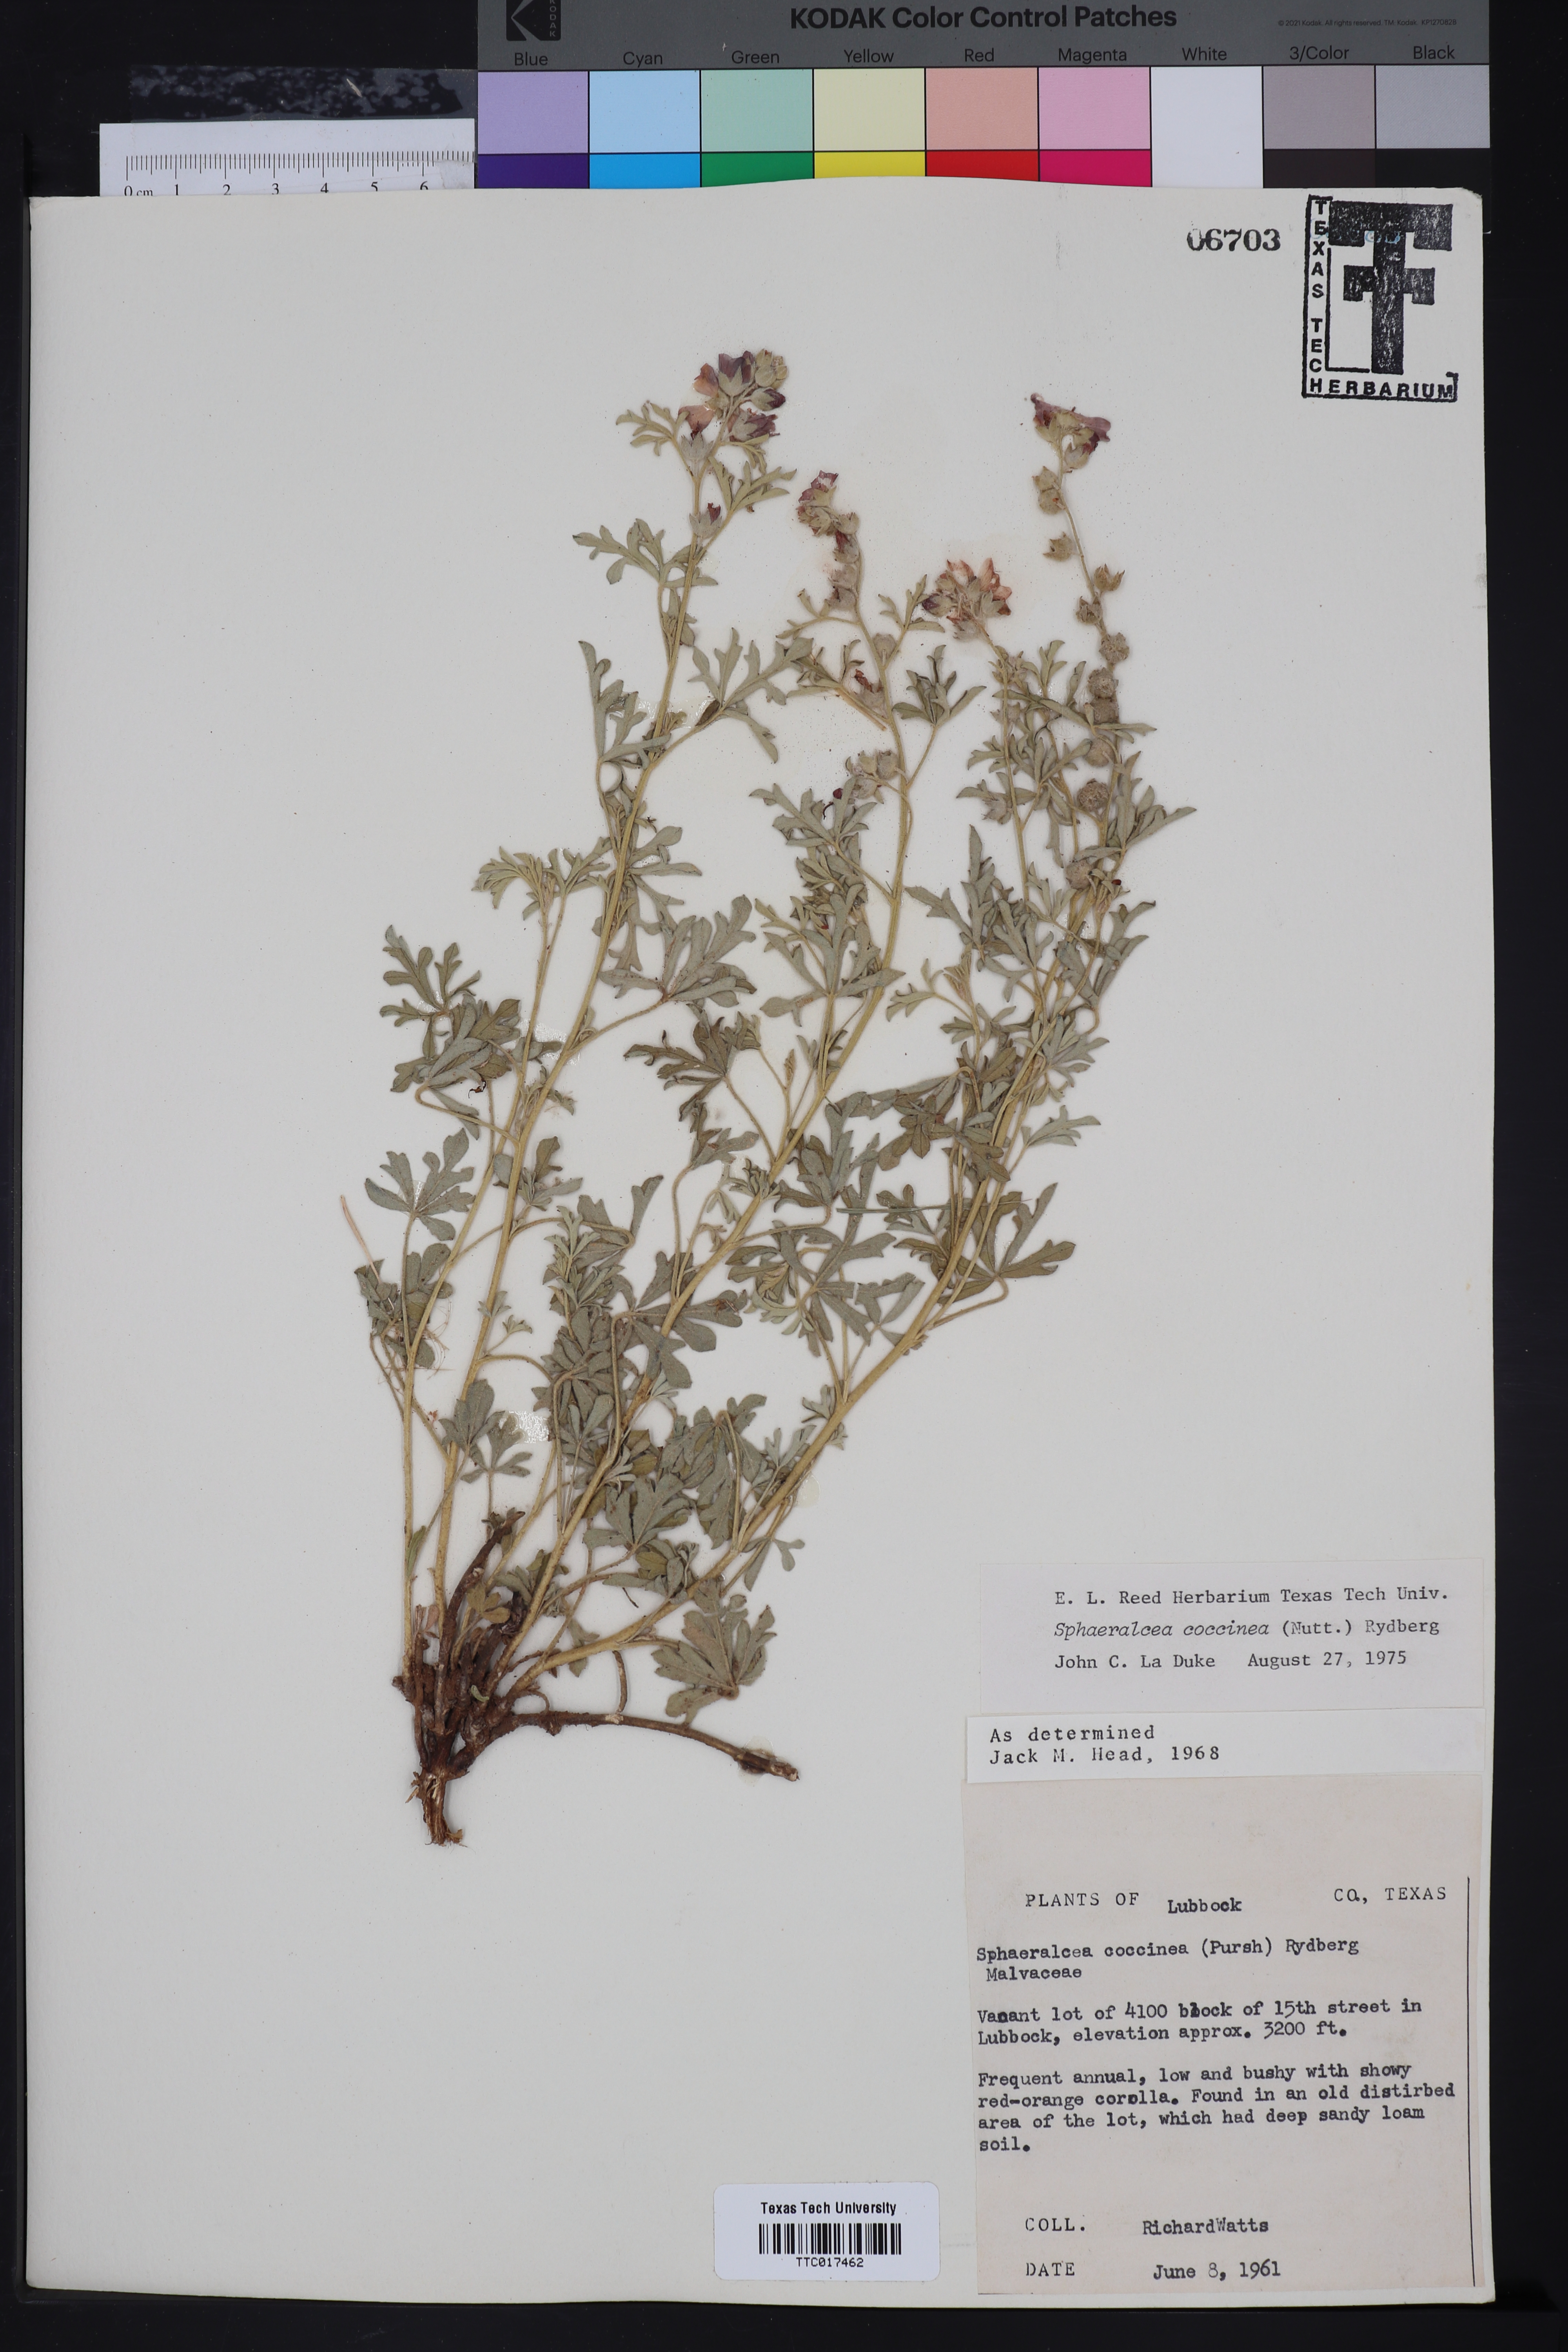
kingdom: Plantae
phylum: Tracheophyta
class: Magnoliopsida
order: Myrtales
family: Onagraceae
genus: Oenothera
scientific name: Oenothera suffrutescens
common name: Scarlet beeblossom
